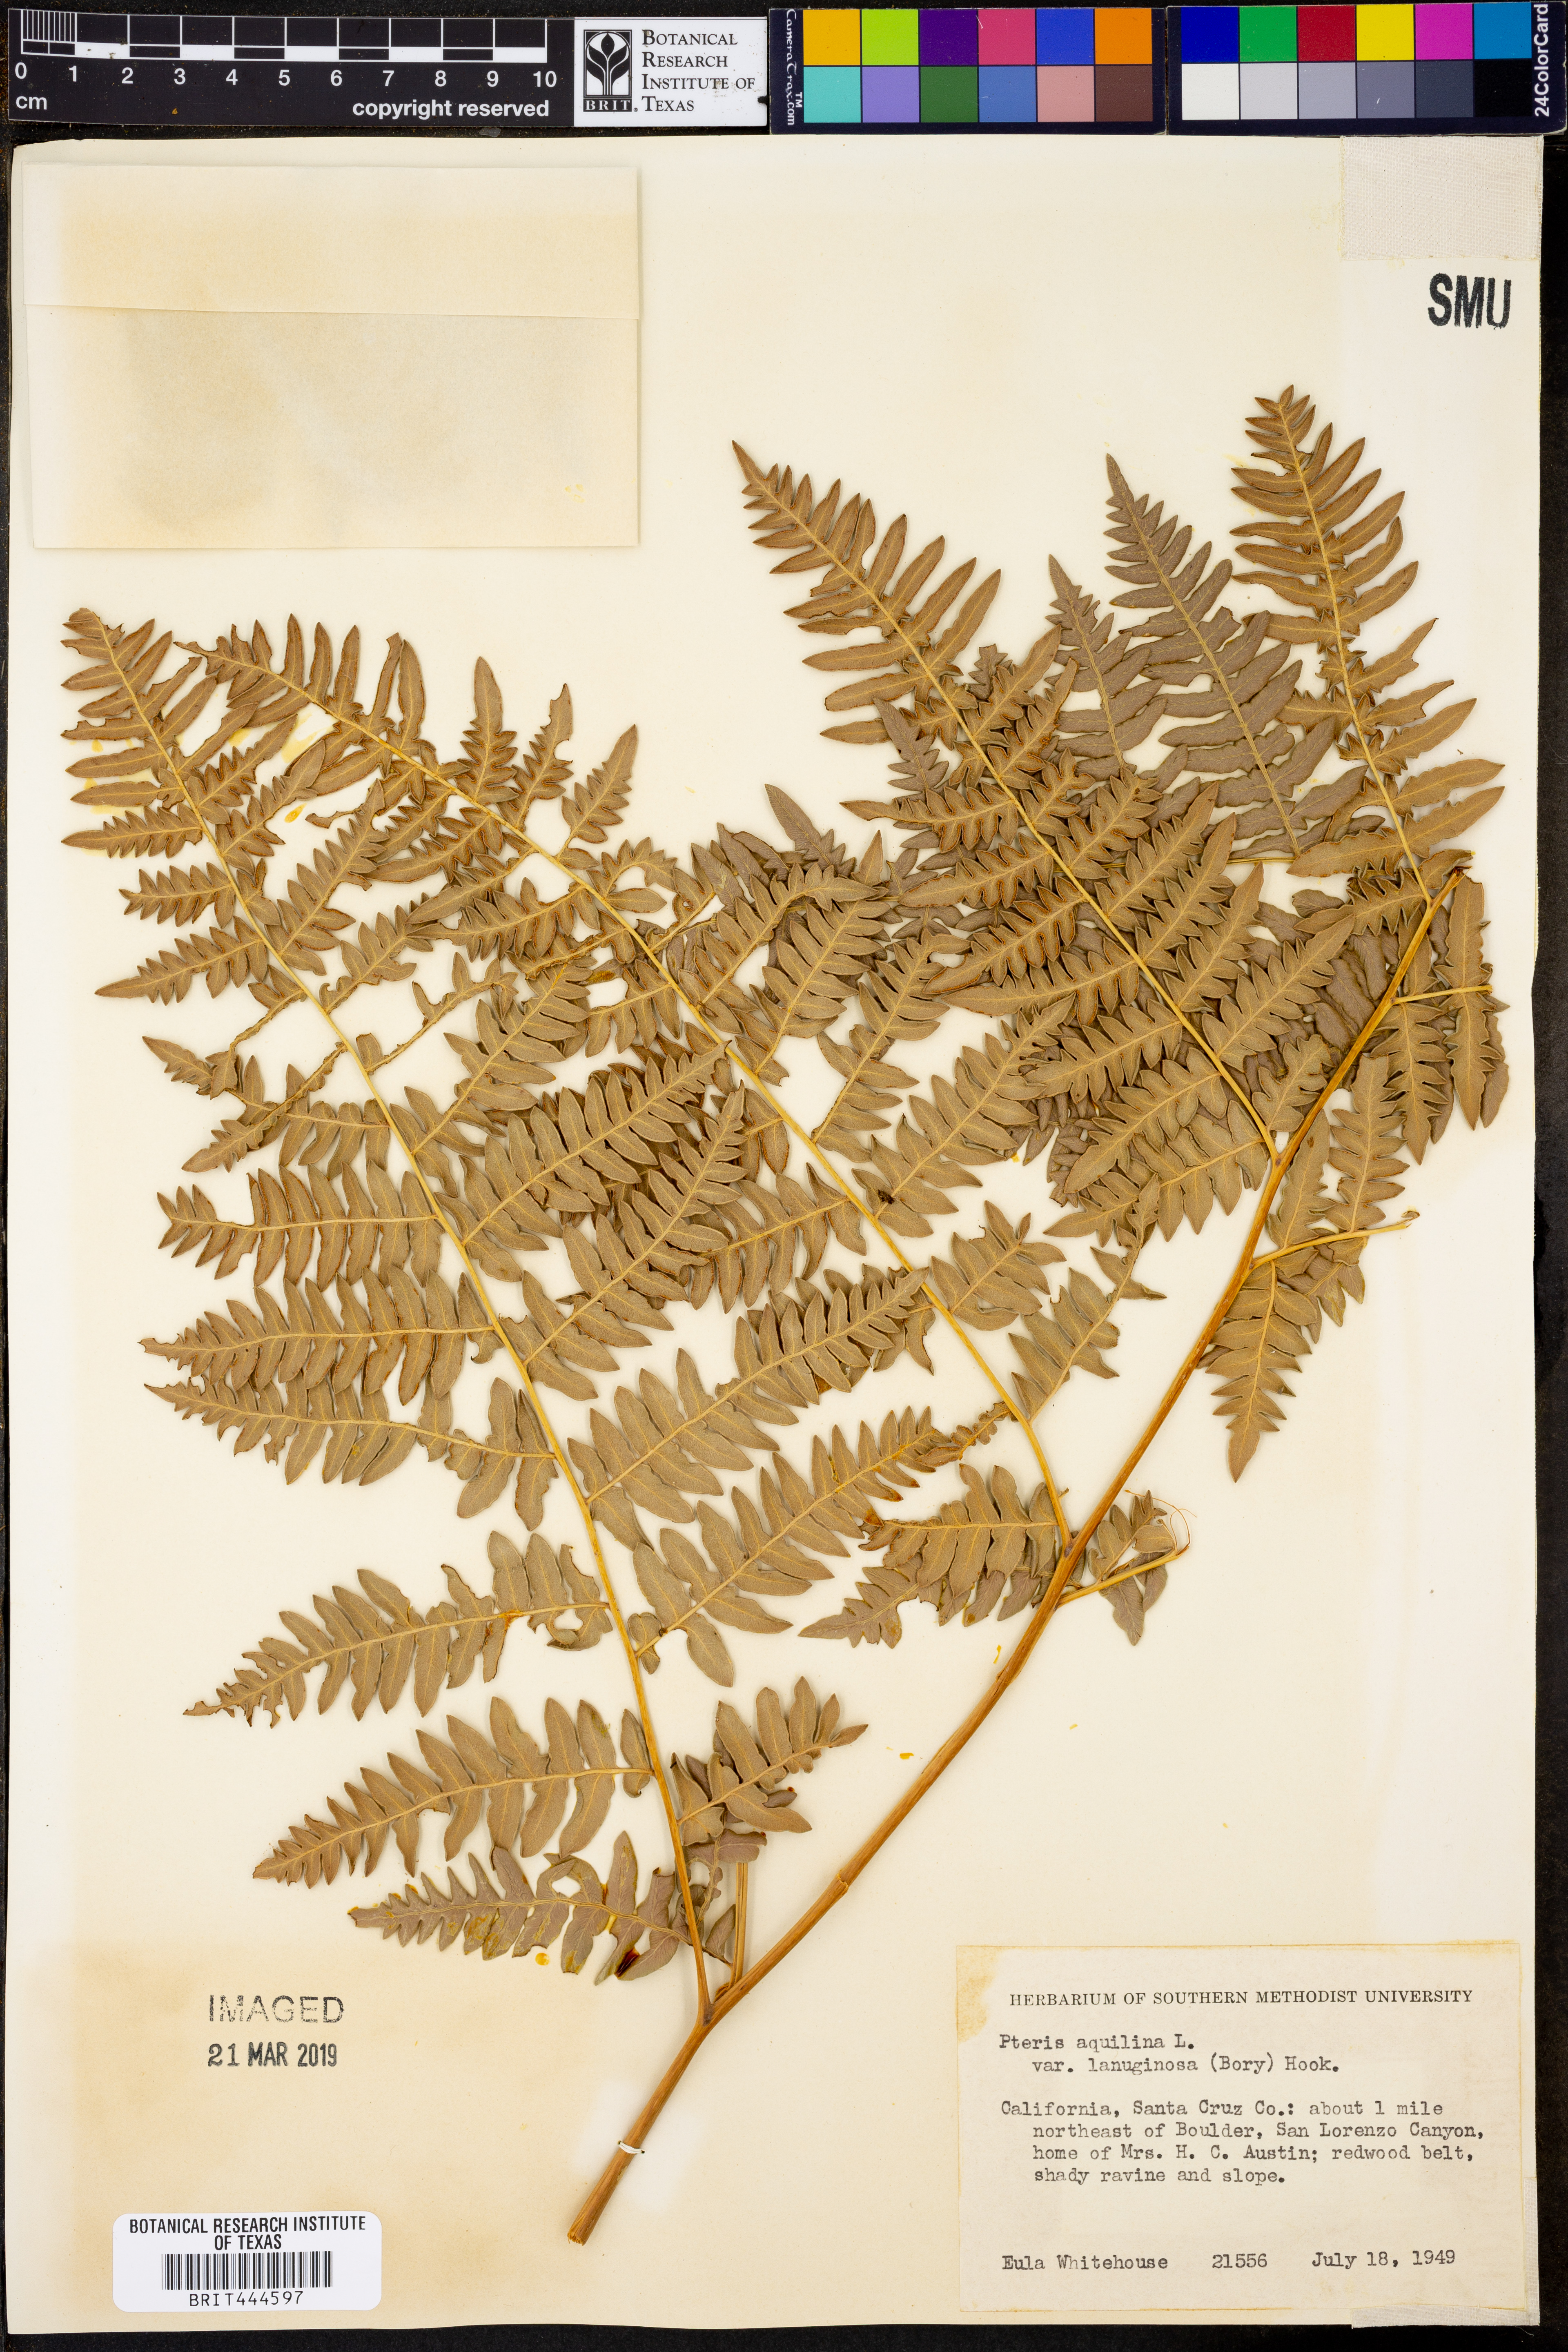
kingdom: Plantae
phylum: Tracheophyta
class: Polypodiopsida
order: Polypodiales
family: Dennstaedtiaceae
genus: Pteridium
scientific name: Pteridium aquilinum
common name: Bracken
